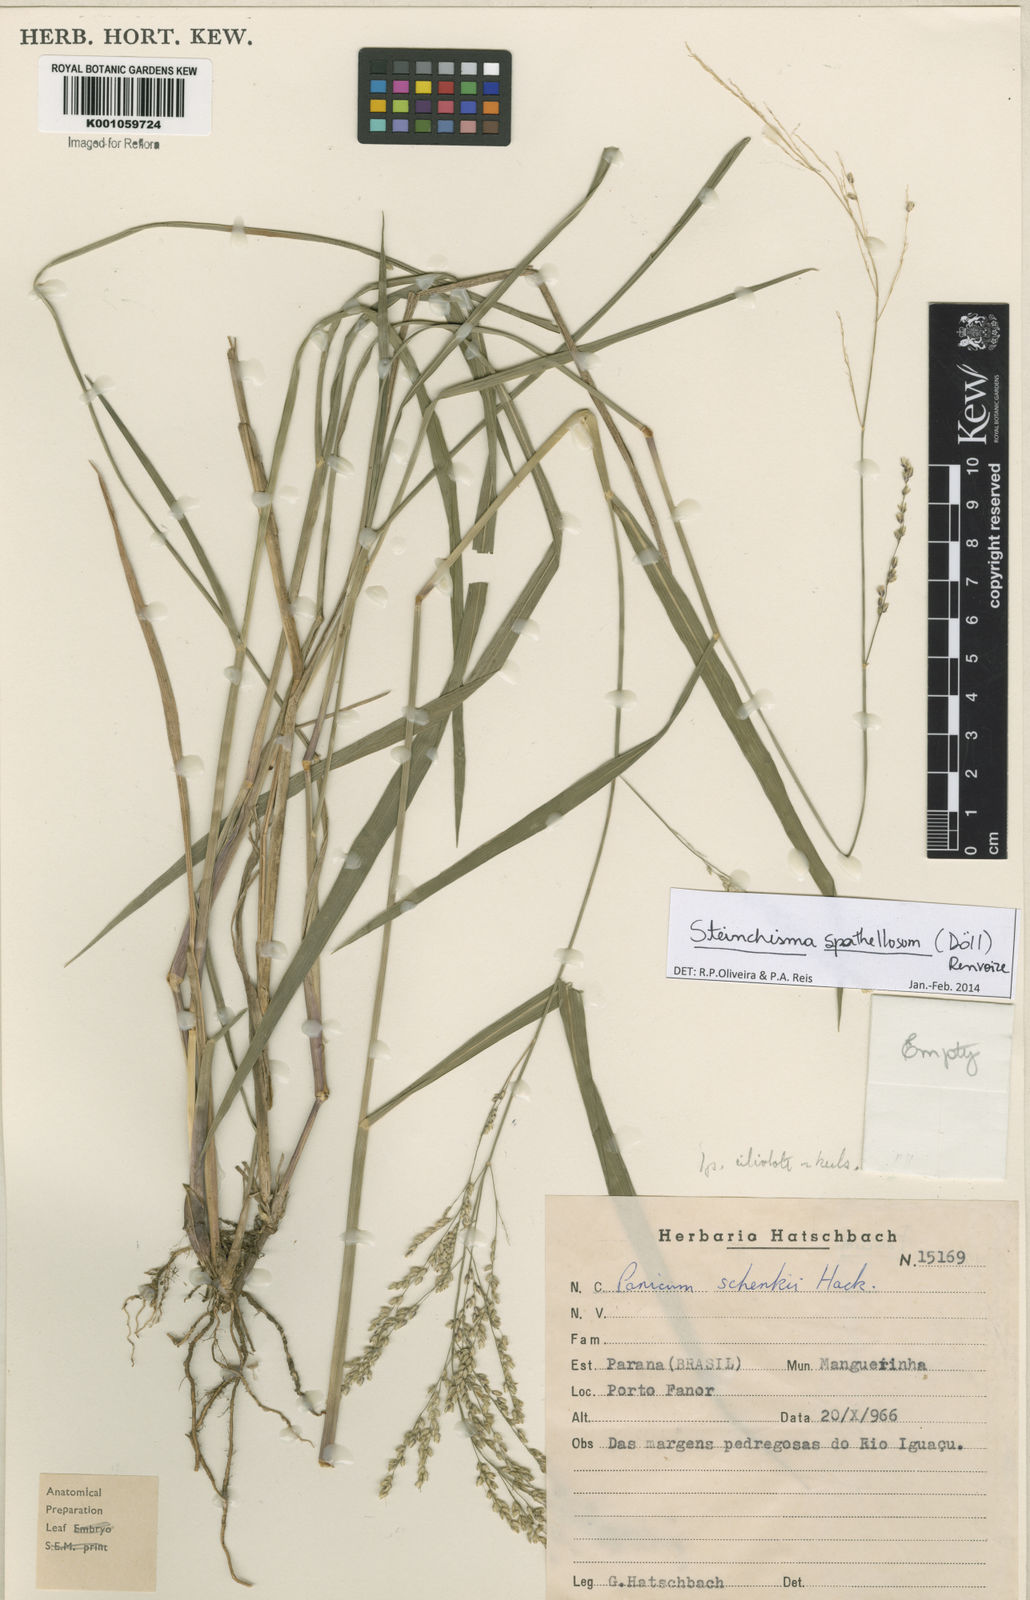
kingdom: Plantae
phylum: Tracheophyta
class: Liliopsida
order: Poales
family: Poaceae
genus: Steinchisma
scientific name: Steinchisma
